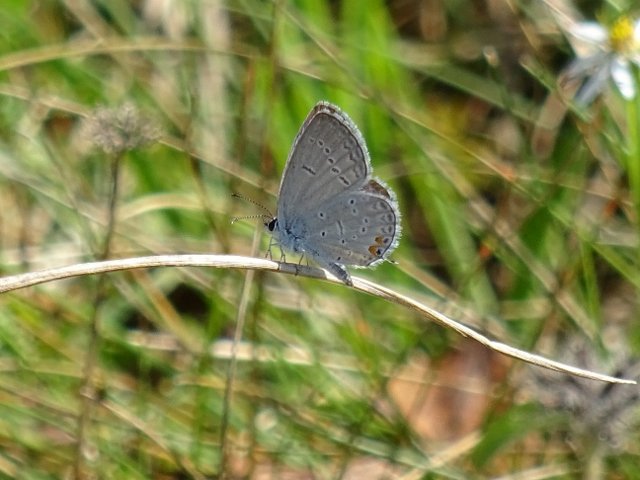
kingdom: Animalia
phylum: Arthropoda
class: Insecta
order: Lepidoptera
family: Lycaenidae
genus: Elkalyce
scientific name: Elkalyce comyntas
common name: Eastern Tailed-Blue
